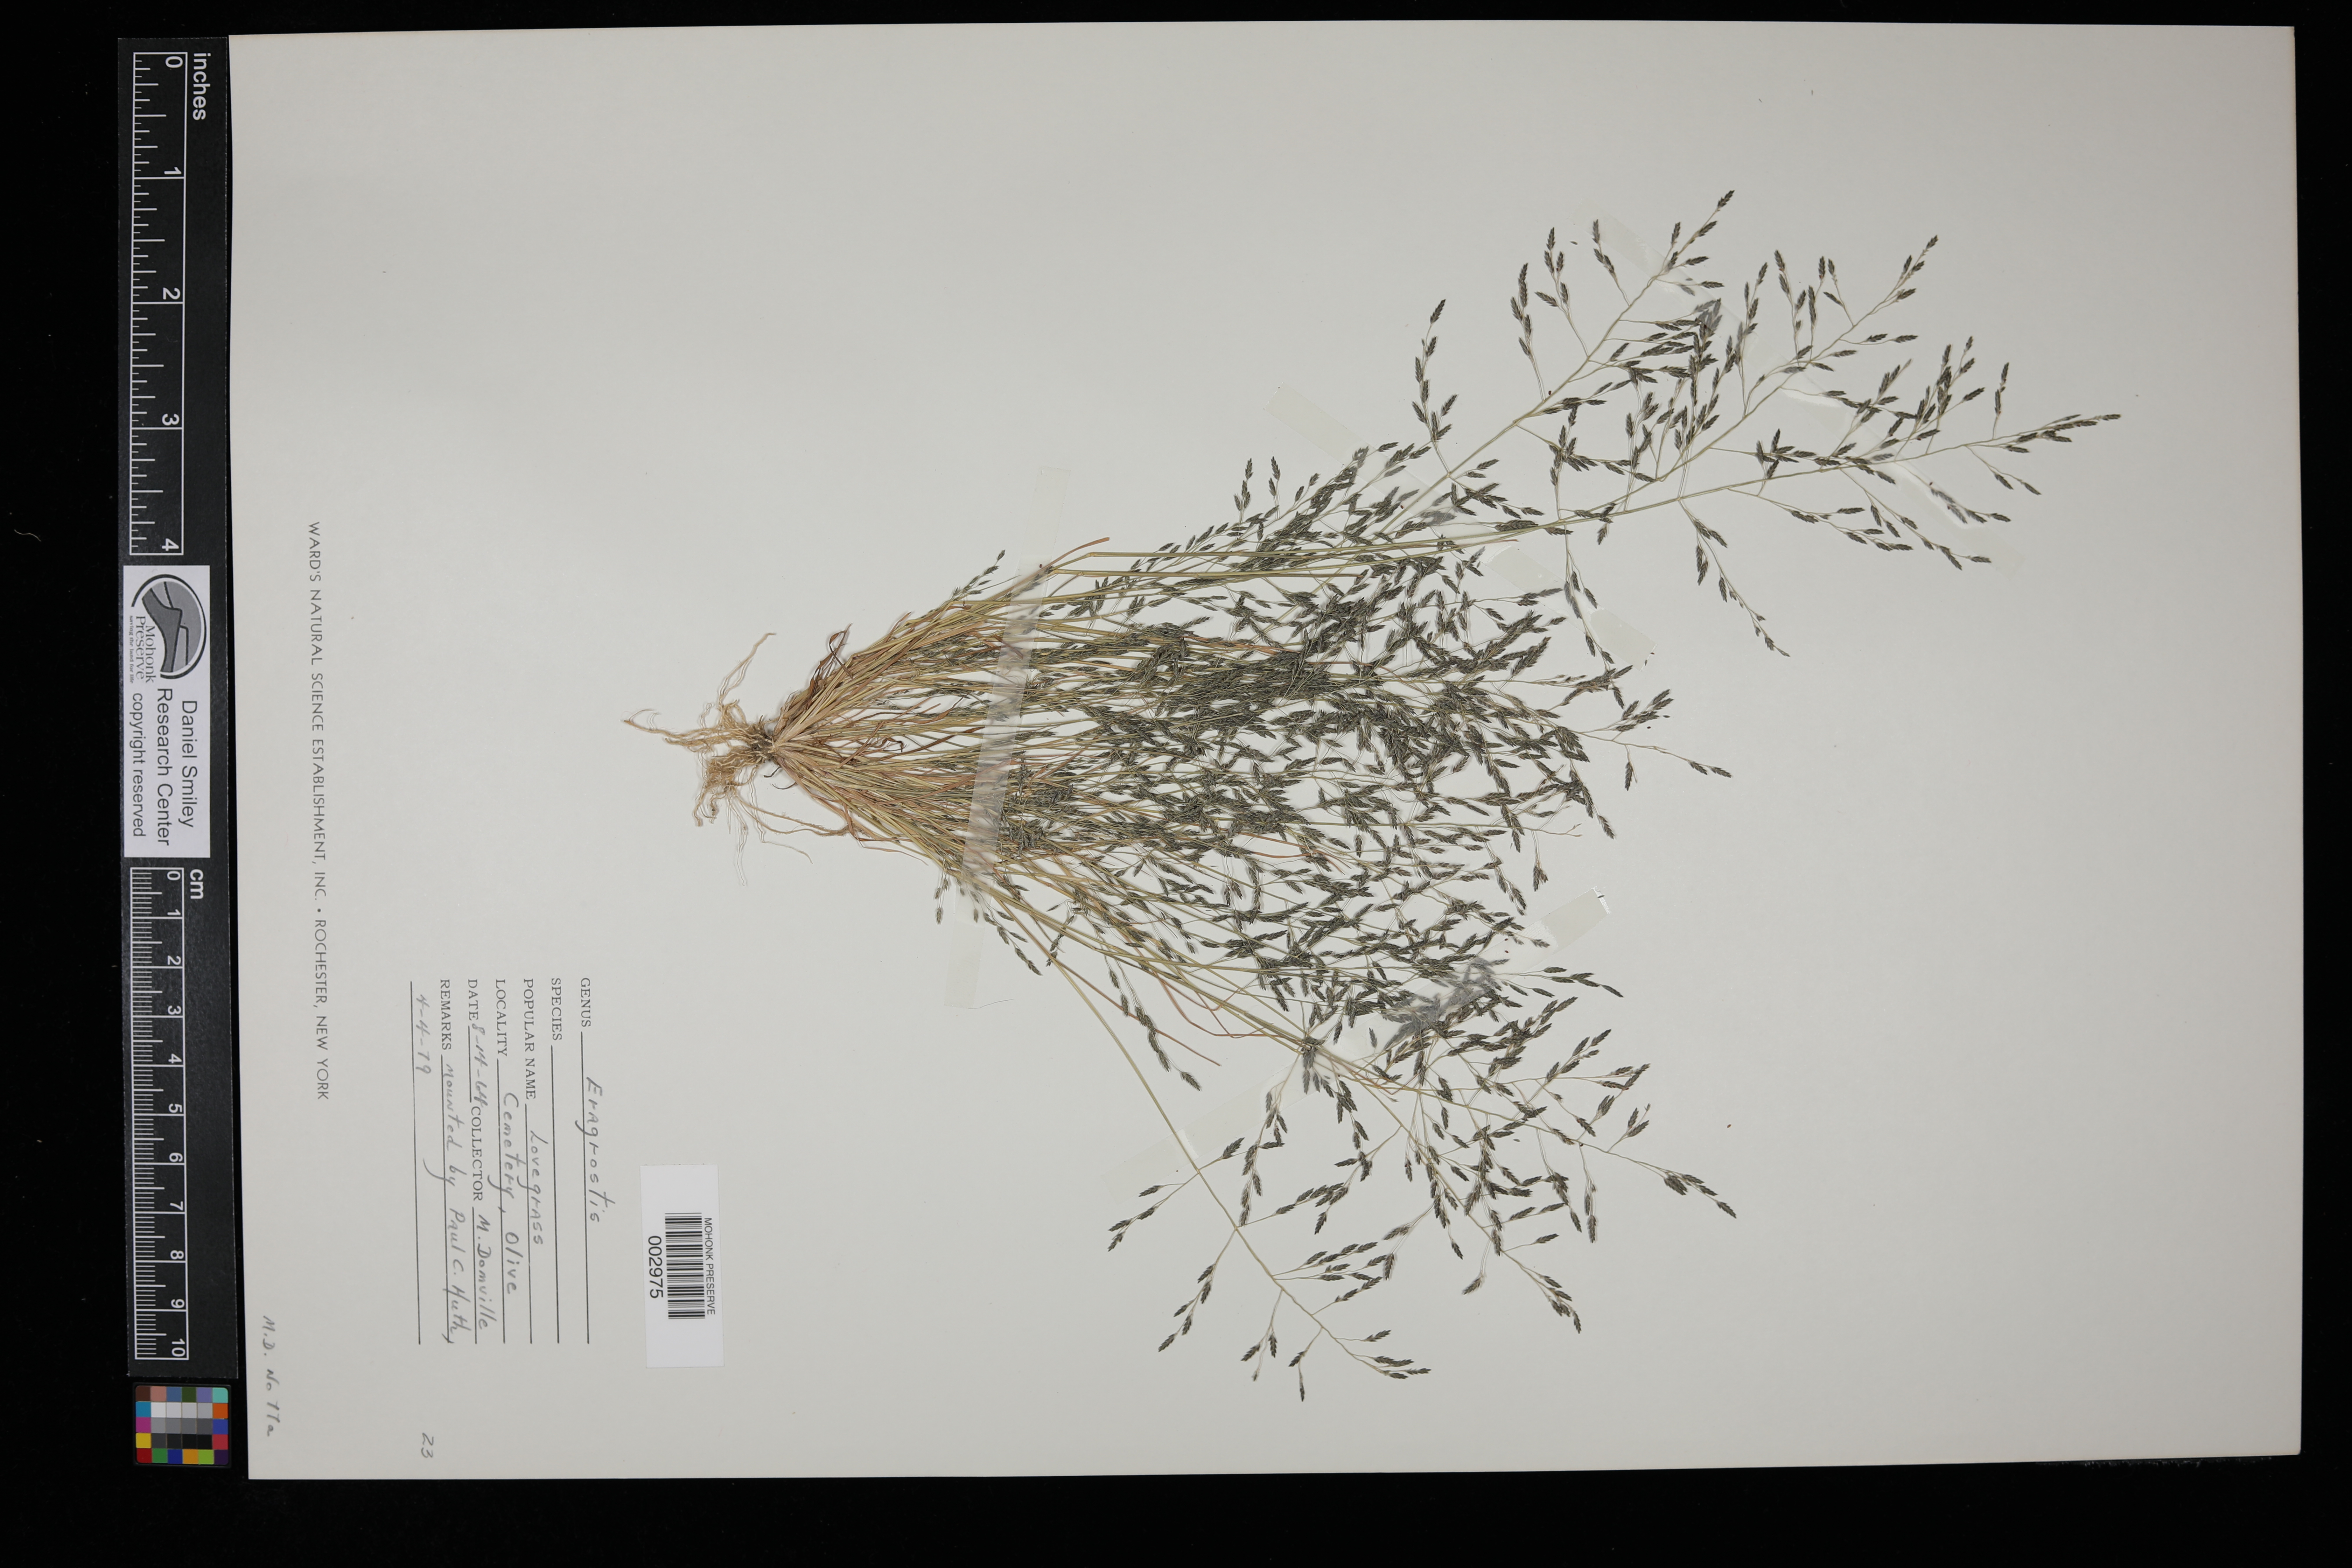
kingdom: Plantae
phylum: Tracheophyta
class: Liliopsida
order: Poales
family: Poaceae
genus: Eragrostis
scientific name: Eragrostis
